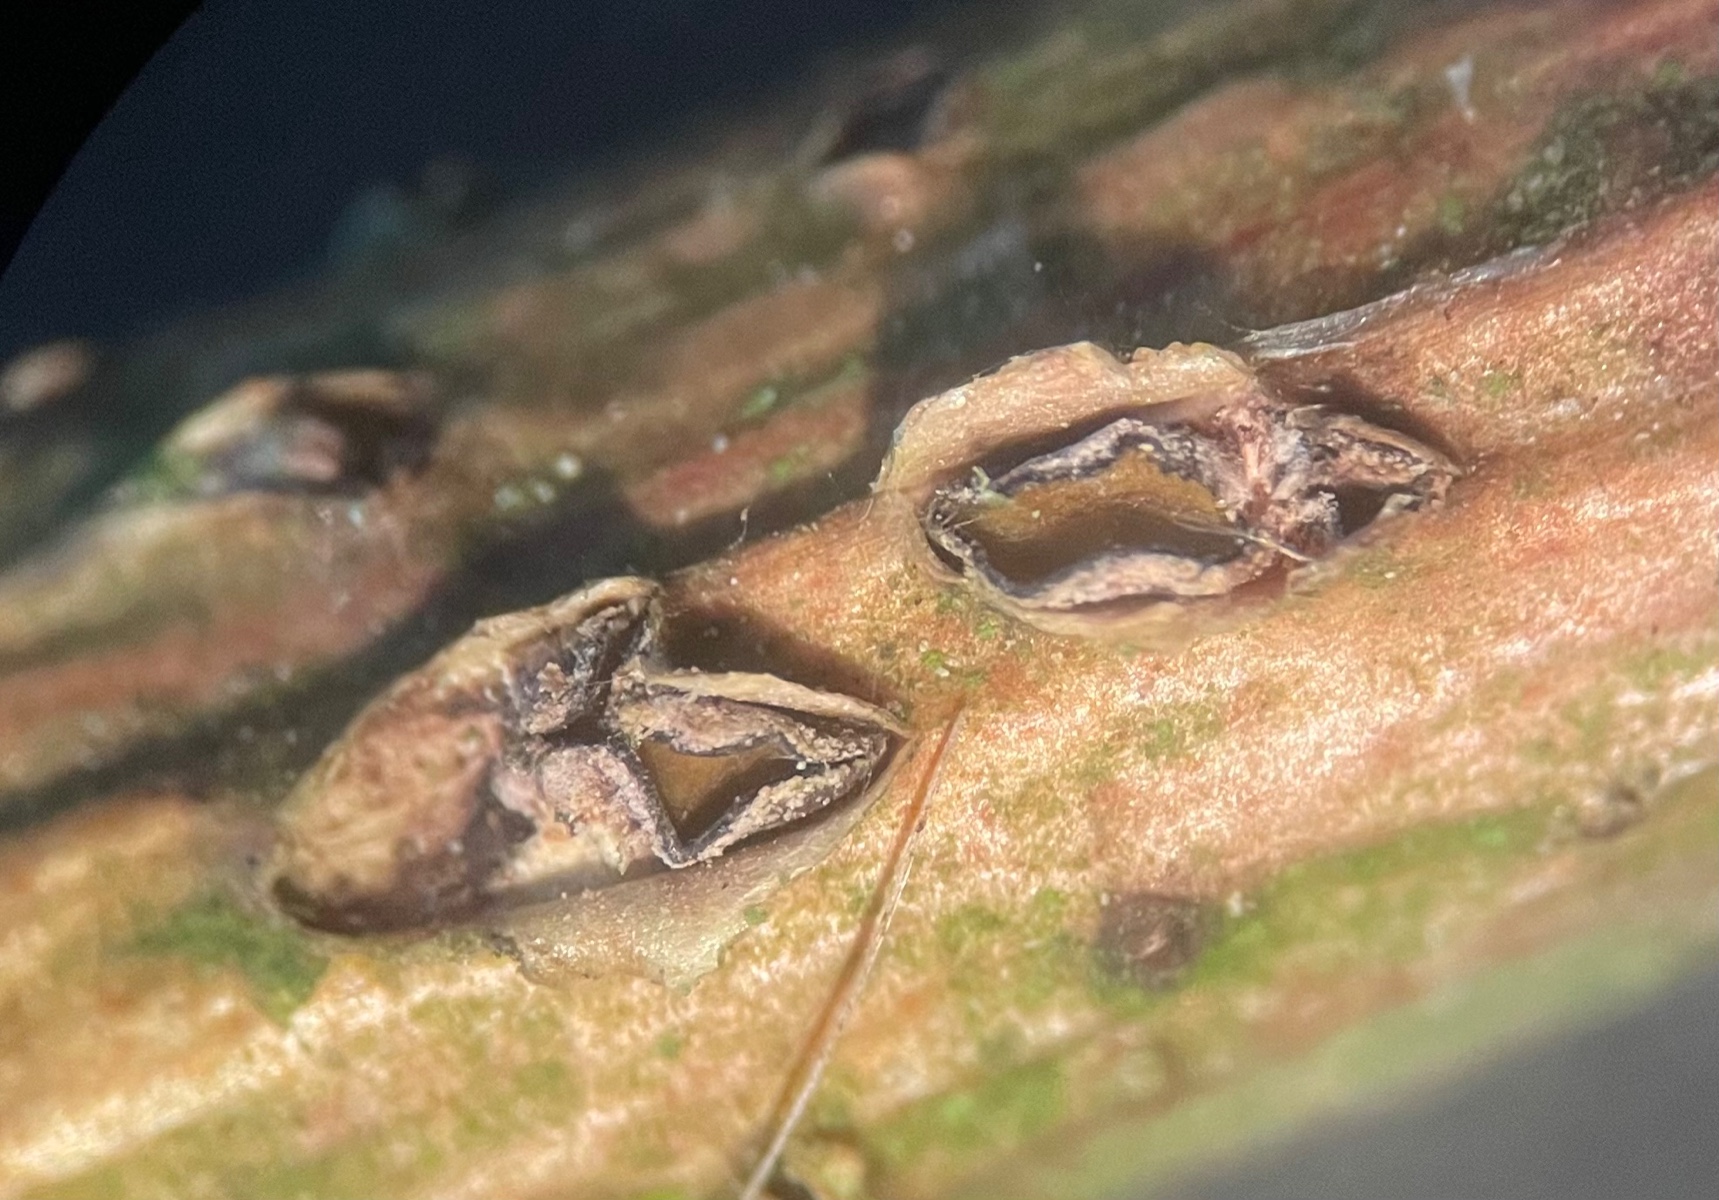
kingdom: Fungi
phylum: Ascomycota
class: Leotiomycetes
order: Rhytismatales
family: Rhytismataceae
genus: Colpoma
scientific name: Colpoma quercinum
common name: ege-sprækkeskive
